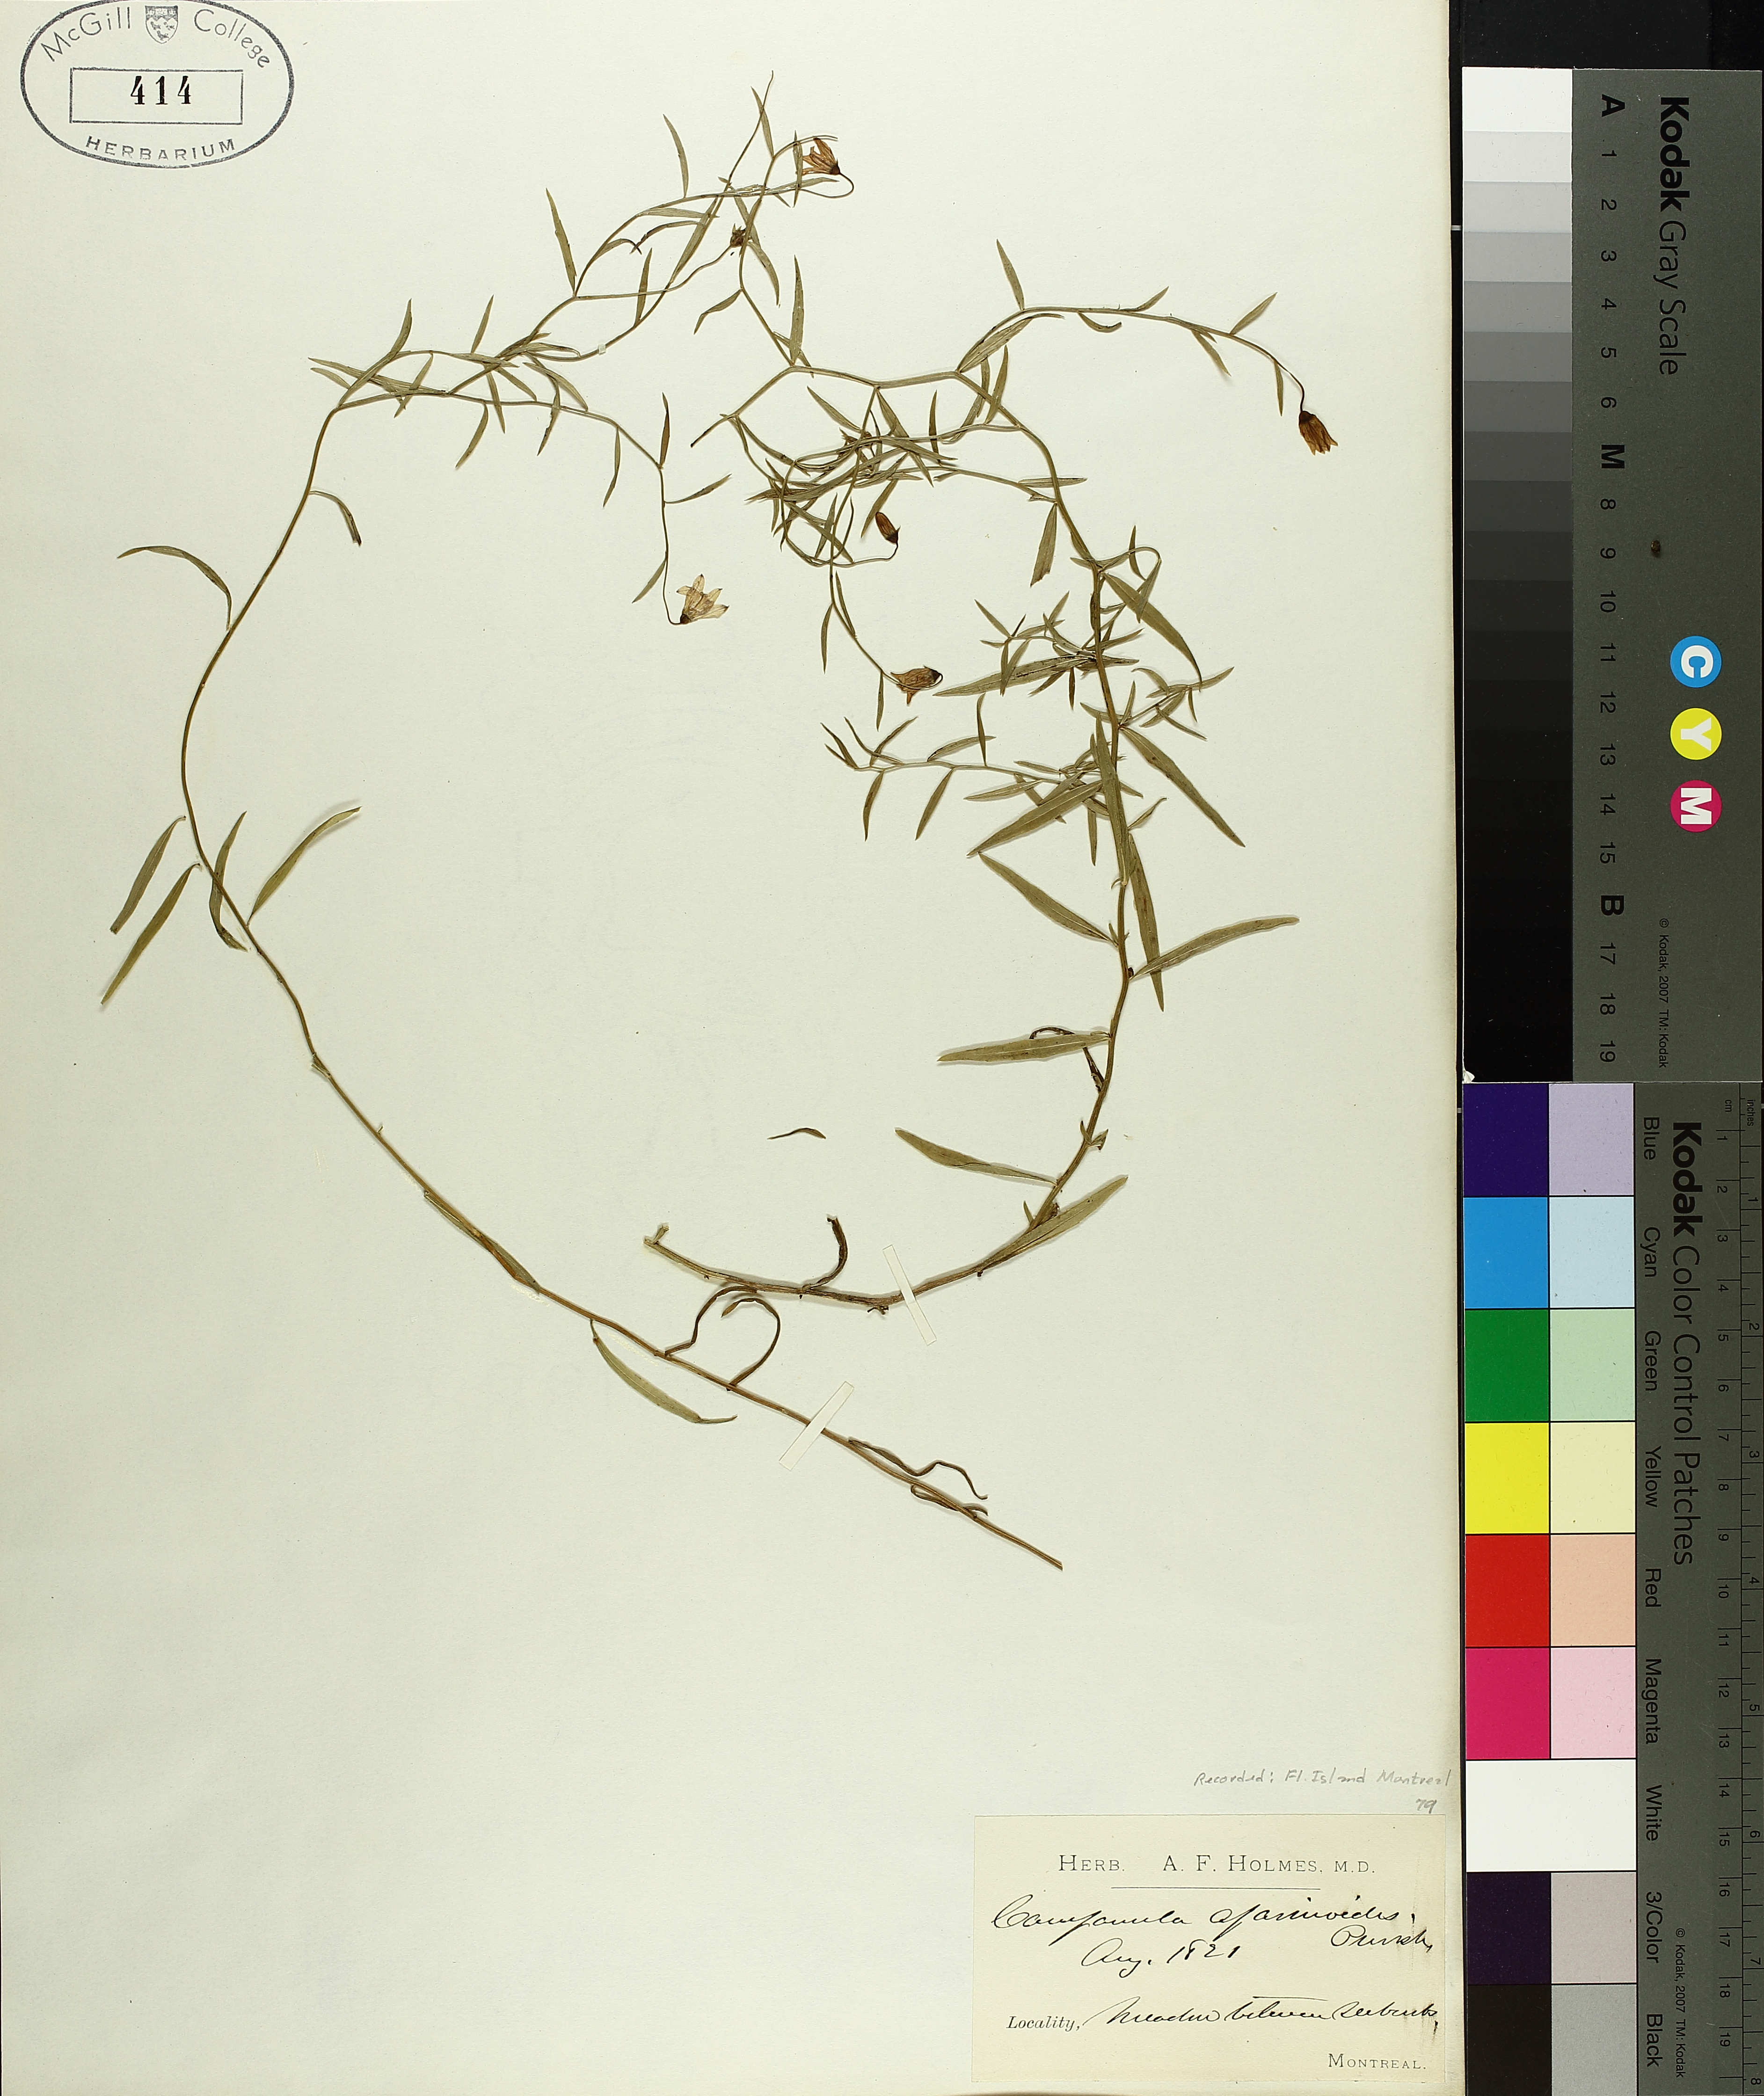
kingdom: Plantae
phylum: Tracheophyta
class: Magnoliopsida
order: Asterales
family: Campanulaceae
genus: Palustricodon
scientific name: Palustricodon aparinoides
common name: Bedstraw bellflower
